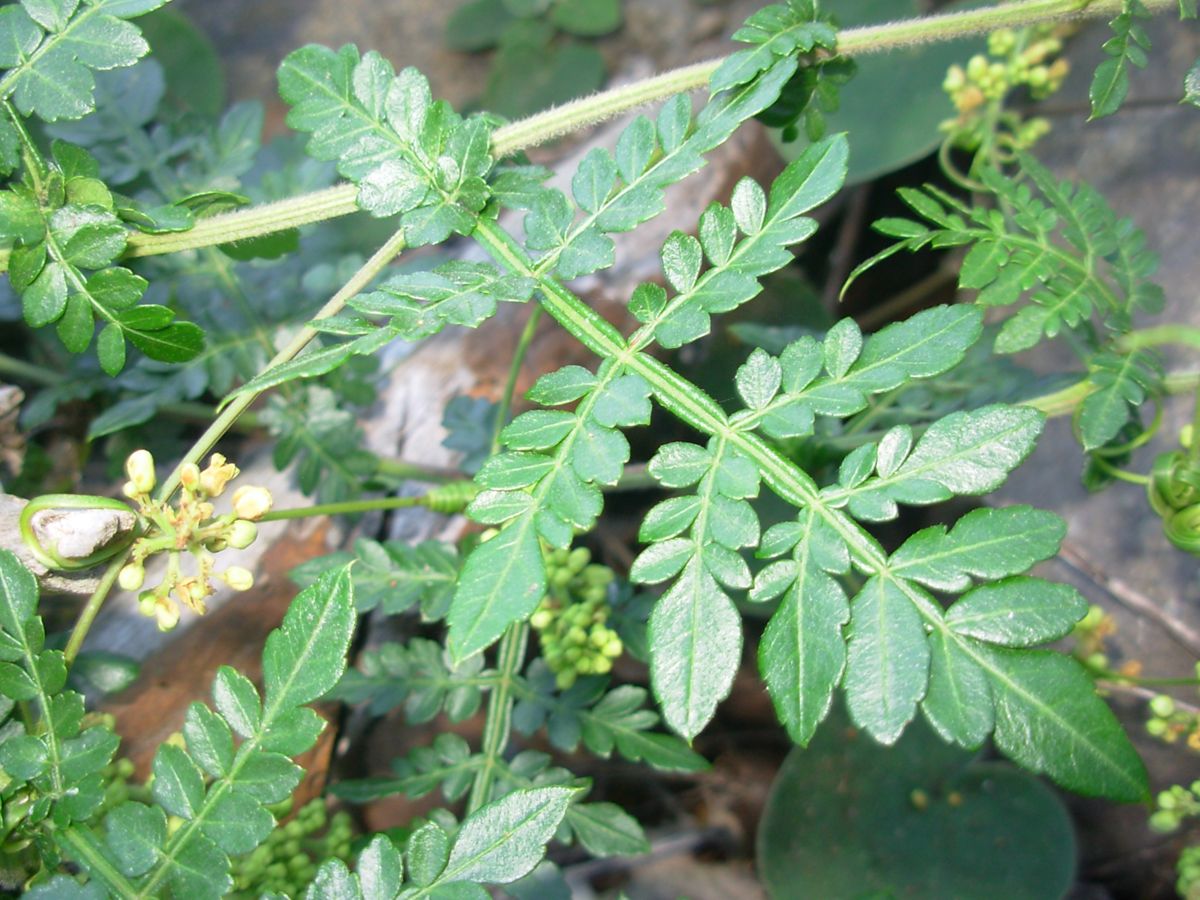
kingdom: Plantae
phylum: Tracheophyta
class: Magnoliopsida
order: Sapindales
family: Sapindaceae
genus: Serjania
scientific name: Serjania rhachiptera
